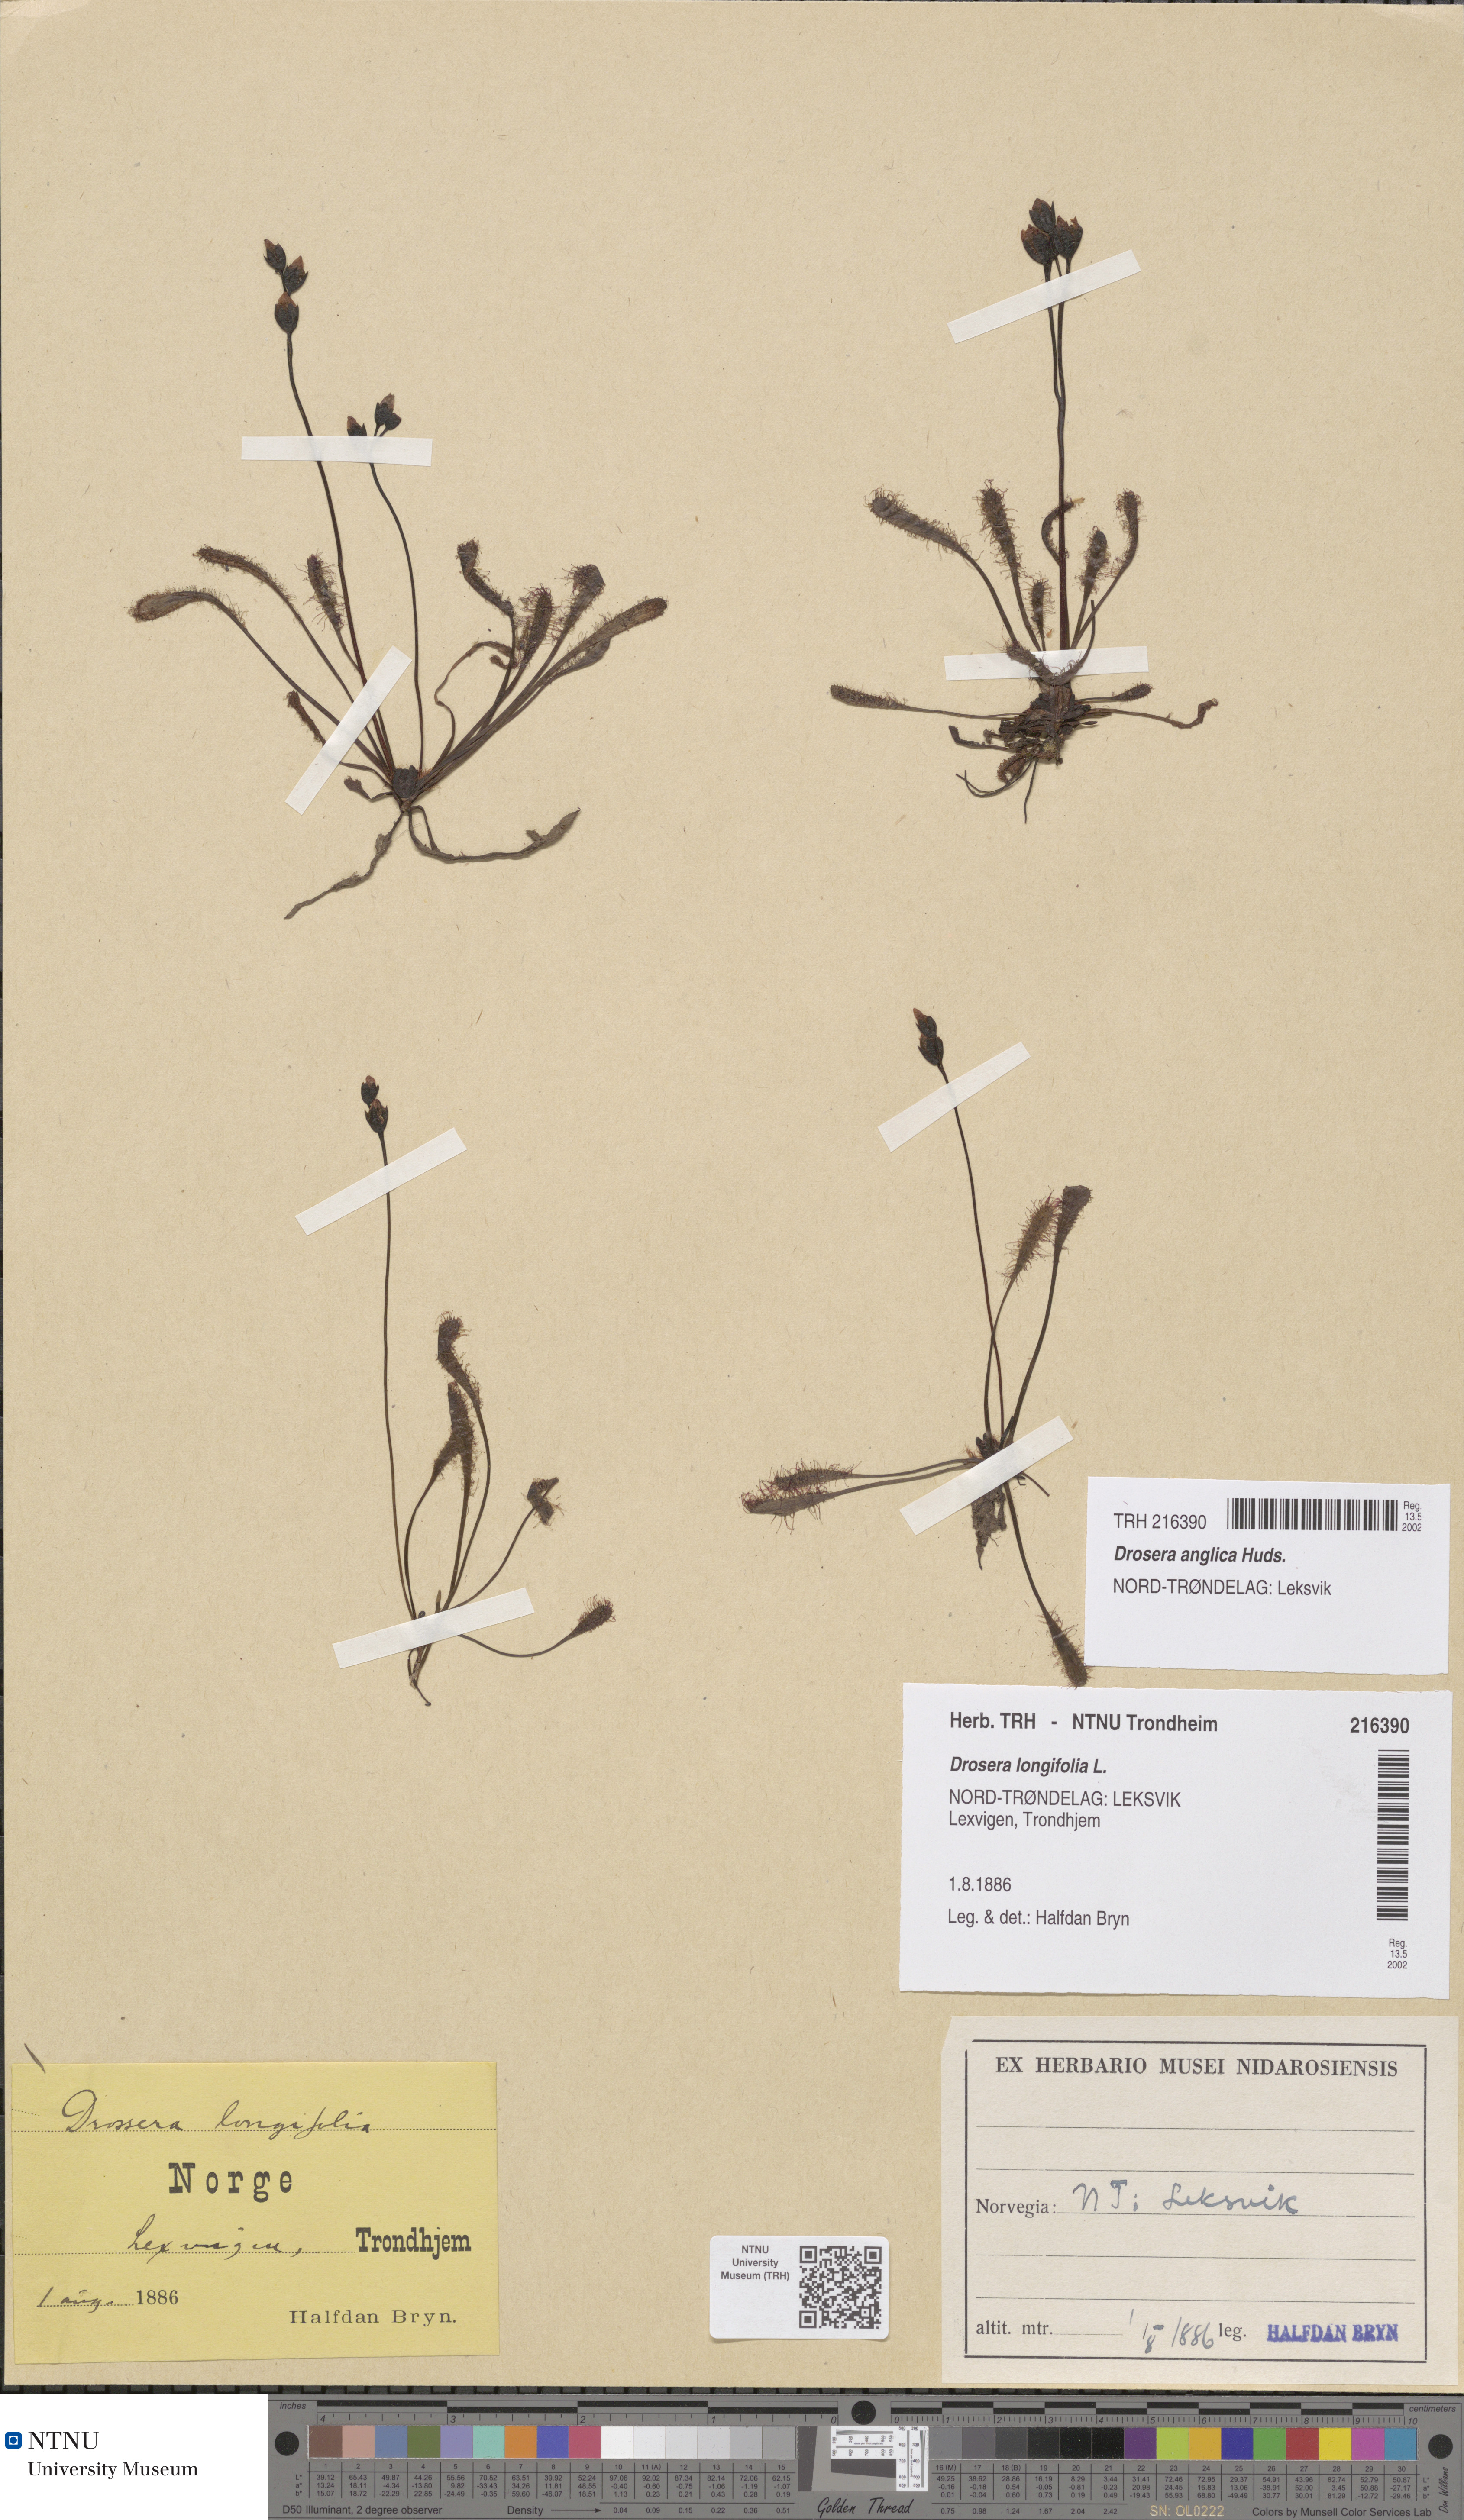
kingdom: Plantae
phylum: Tracheophyta
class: Magnoliopsida
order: Caryophyllales
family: Droseraceae
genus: Drosera
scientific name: Drosera anglica
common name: Great sundew
